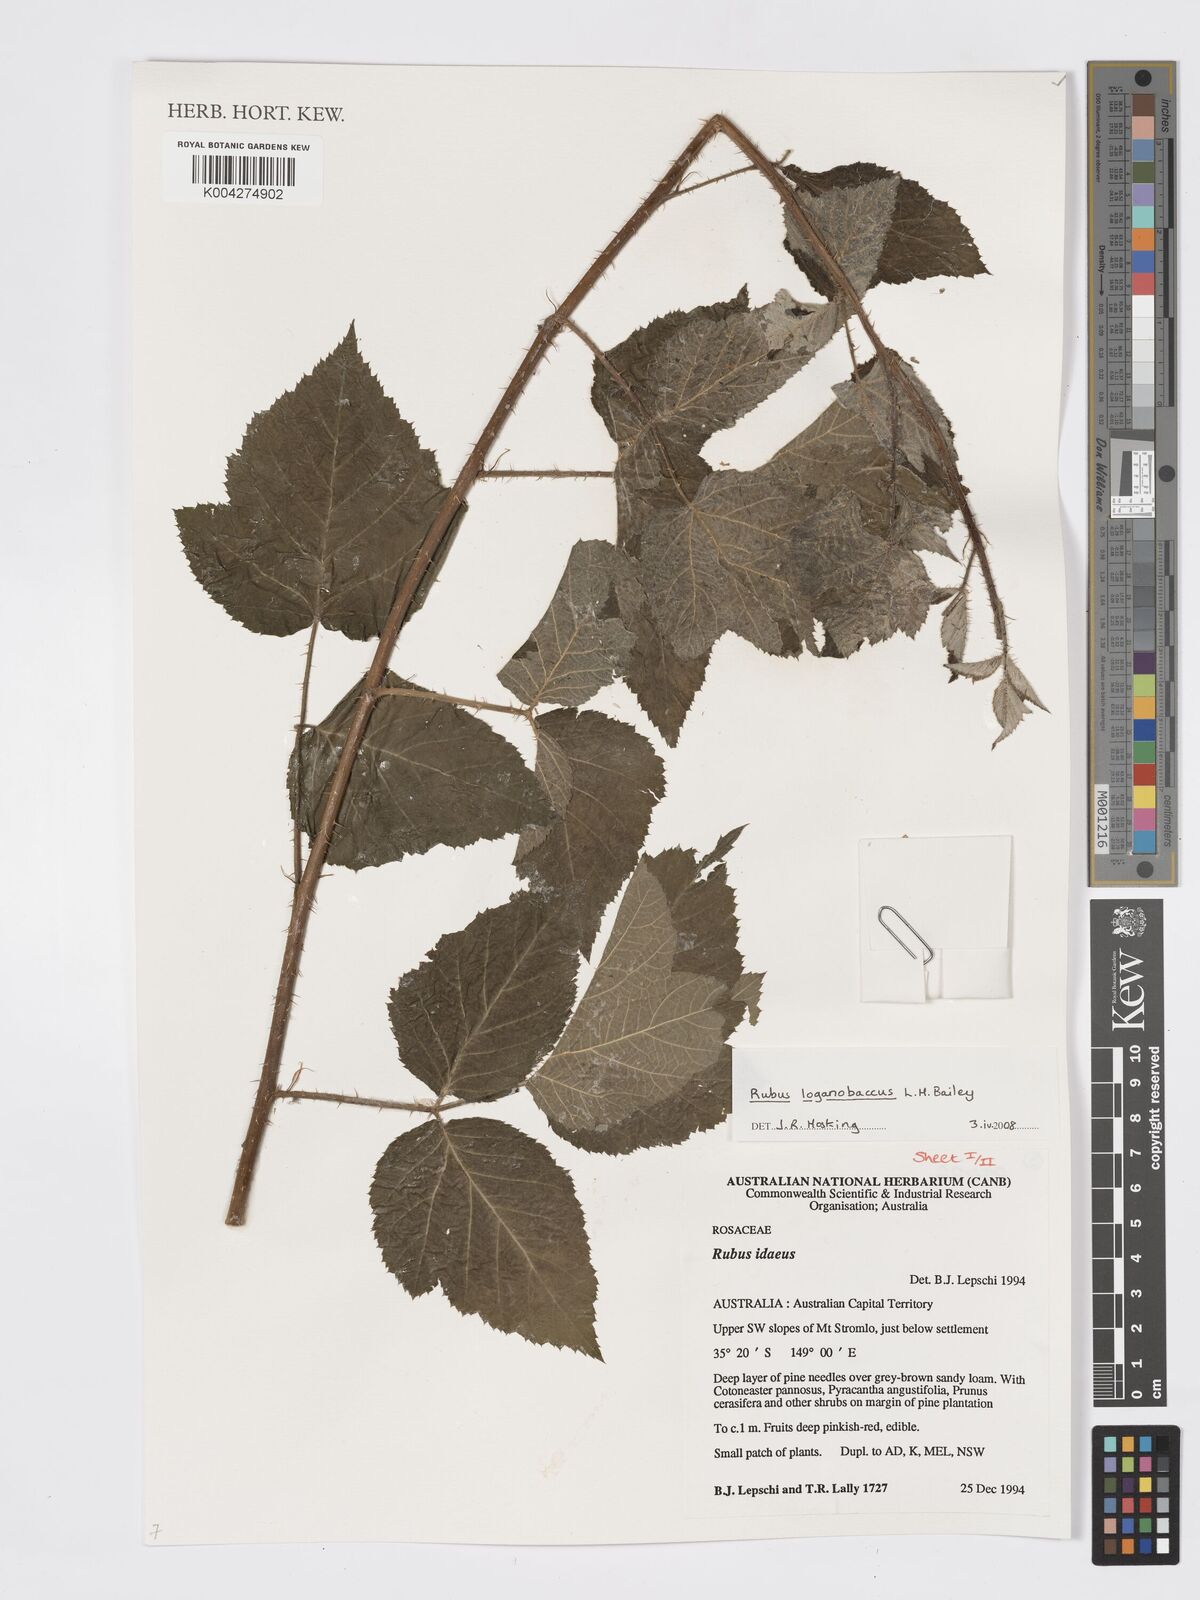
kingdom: Plantae
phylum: Tracheophyta
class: Magnoliopsida
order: Rosales
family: Rosaceae
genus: Rubus
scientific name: Rubus loganobaccus
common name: Loganberry
